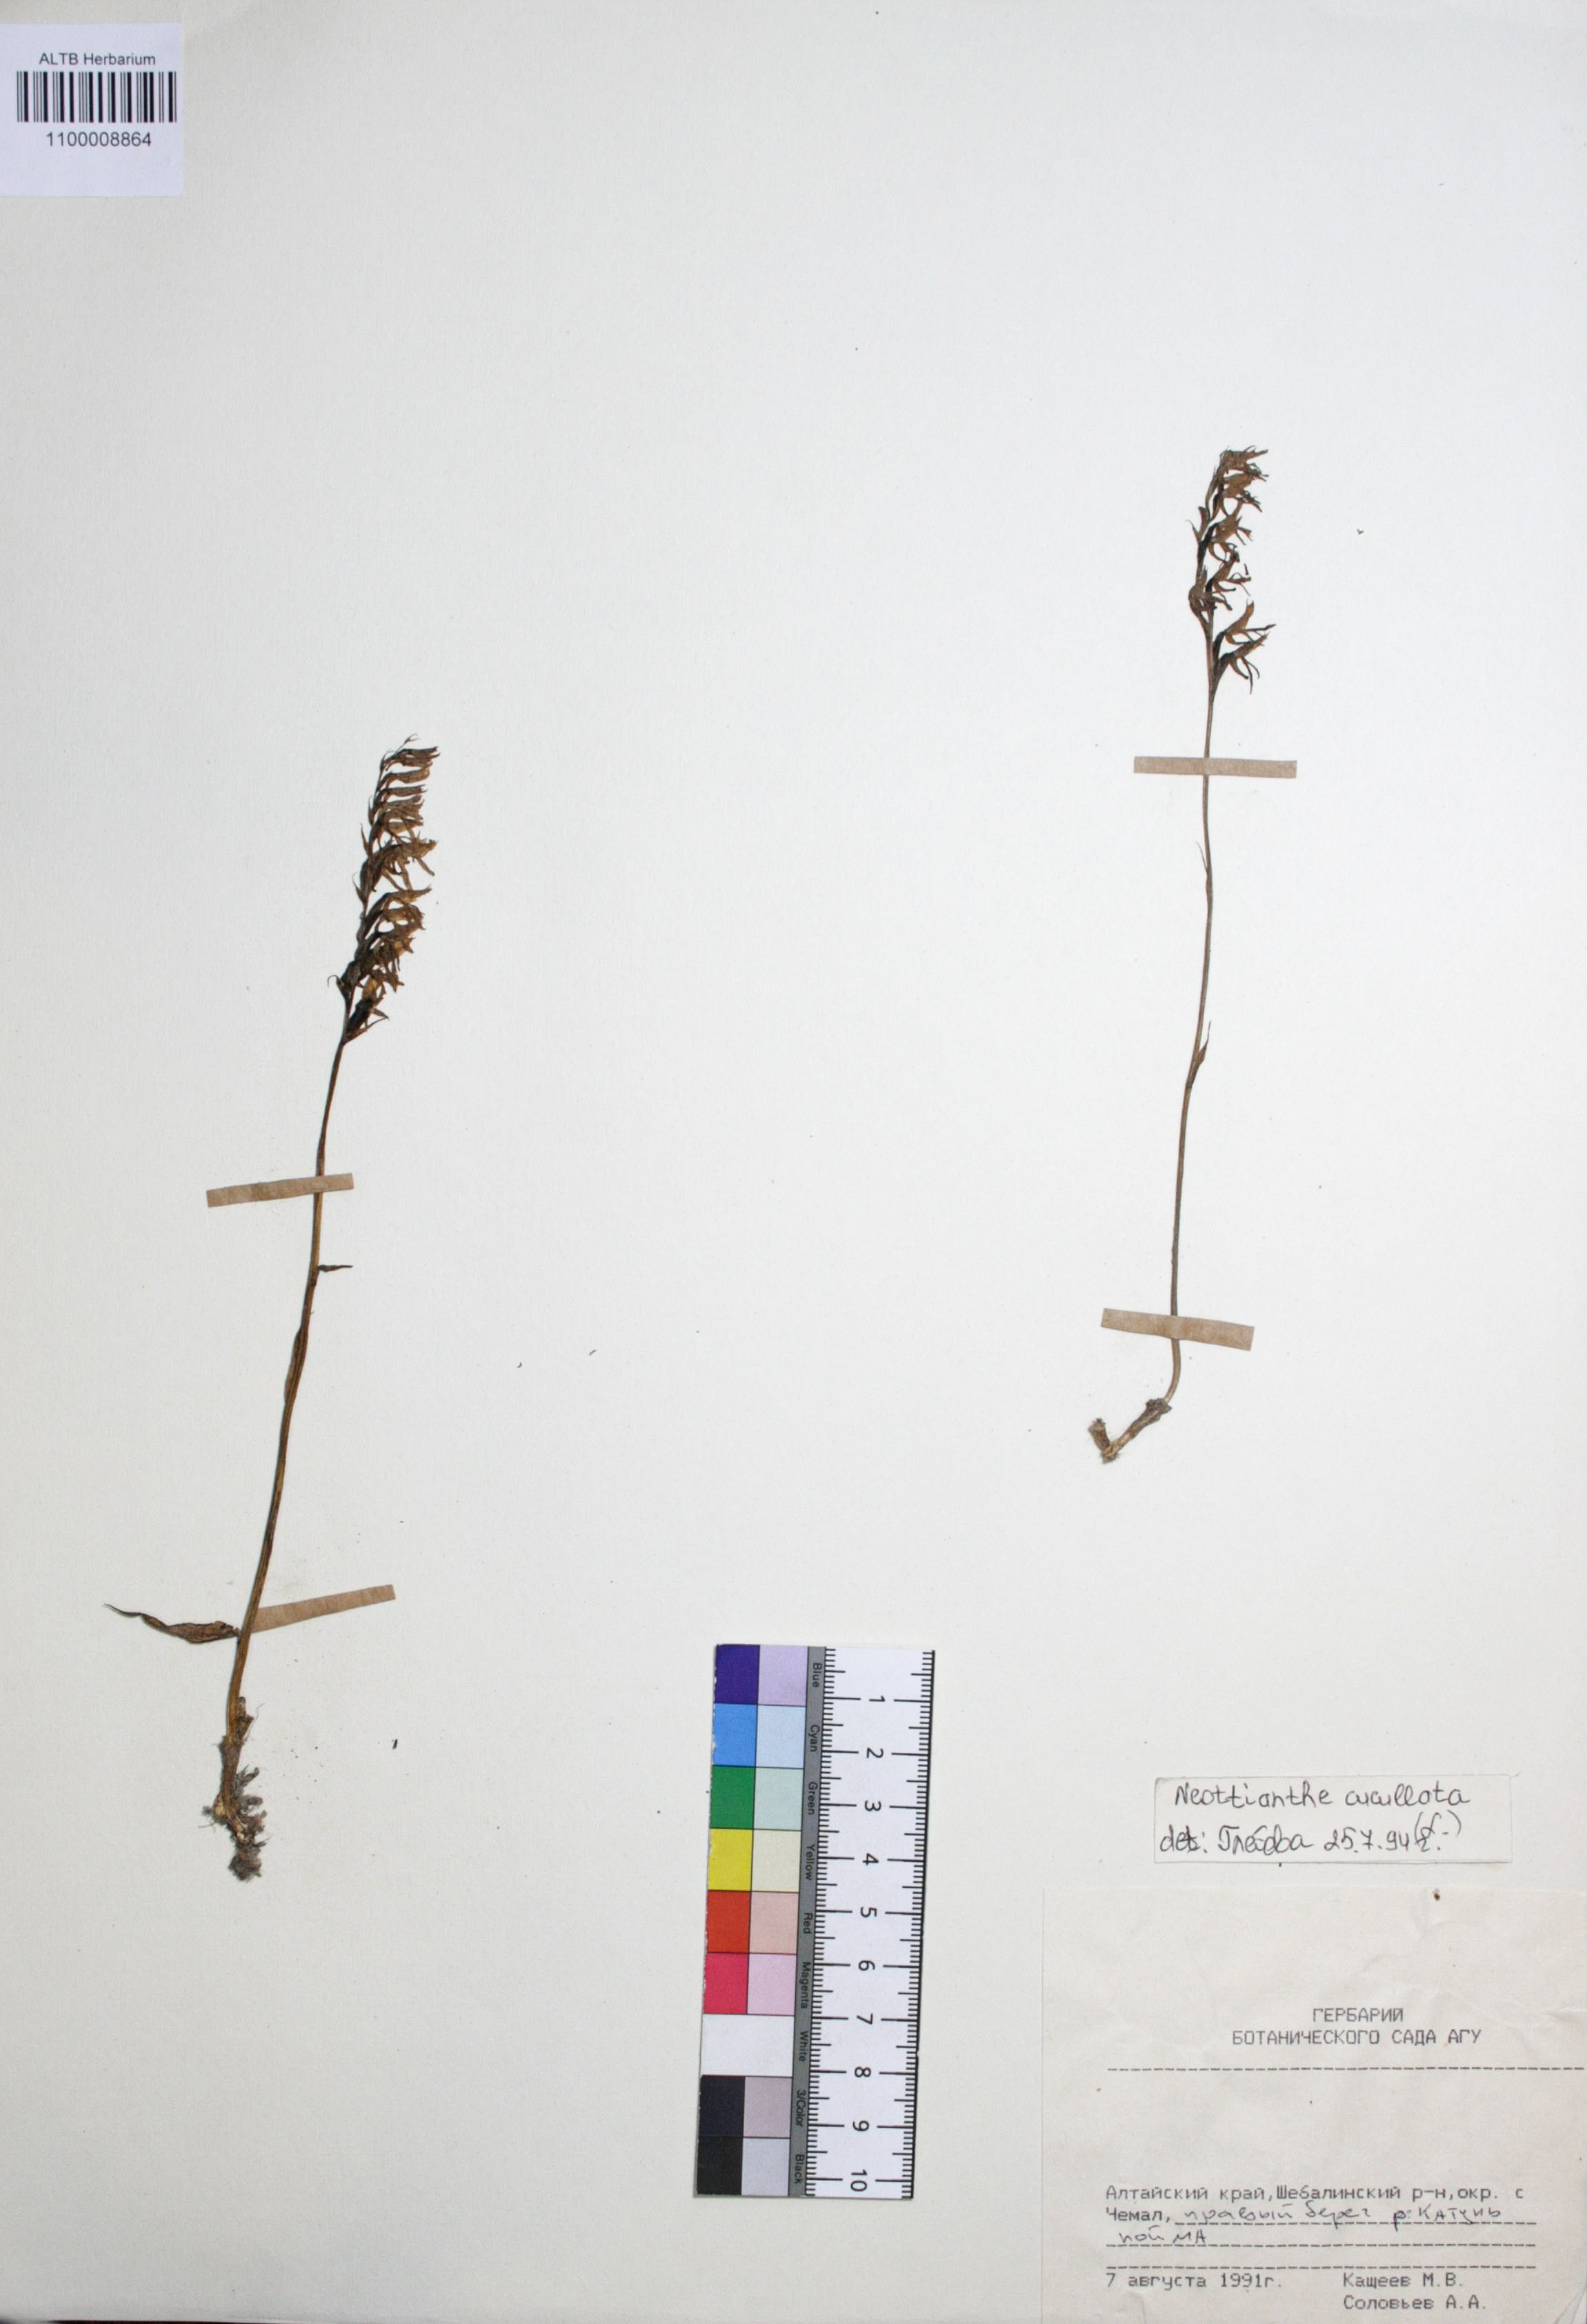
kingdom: Plantae
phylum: Tracheophyta
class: Liliopsida
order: Asparagales
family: Orchidaceae
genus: Hemipilia
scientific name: Hemipilia cucullata
